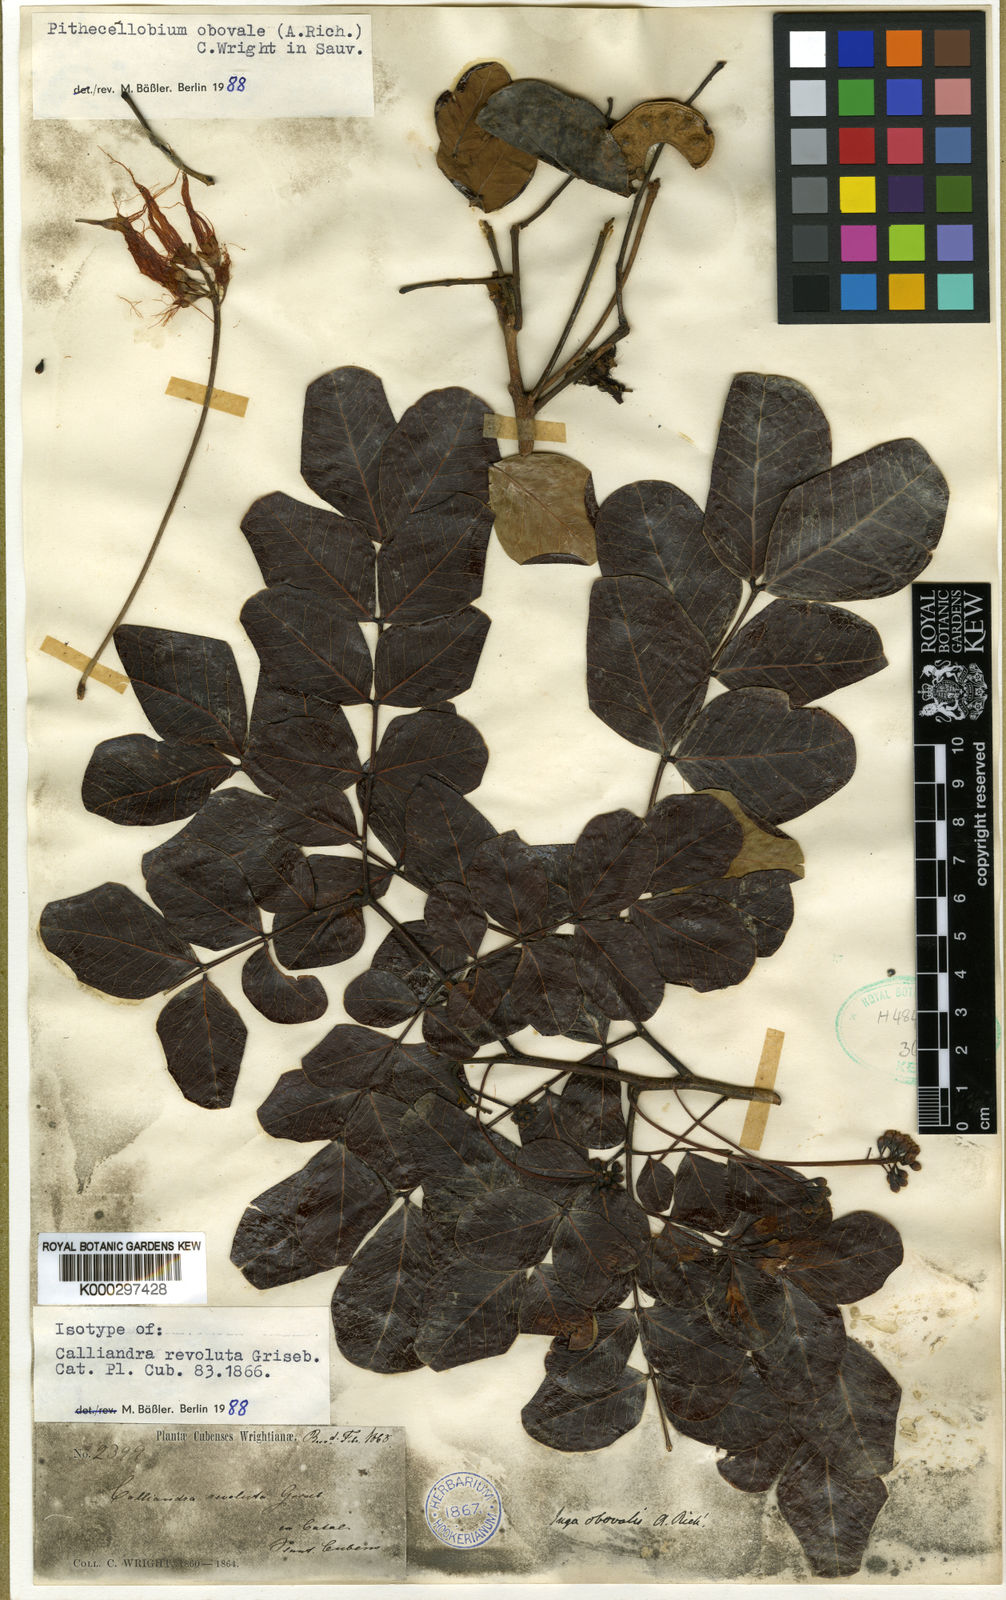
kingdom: Plantae
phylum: Tracheophyta
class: Magnoliopsida
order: Fabales
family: Fabaceae
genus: Jupunba
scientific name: Jupunba obovalis
